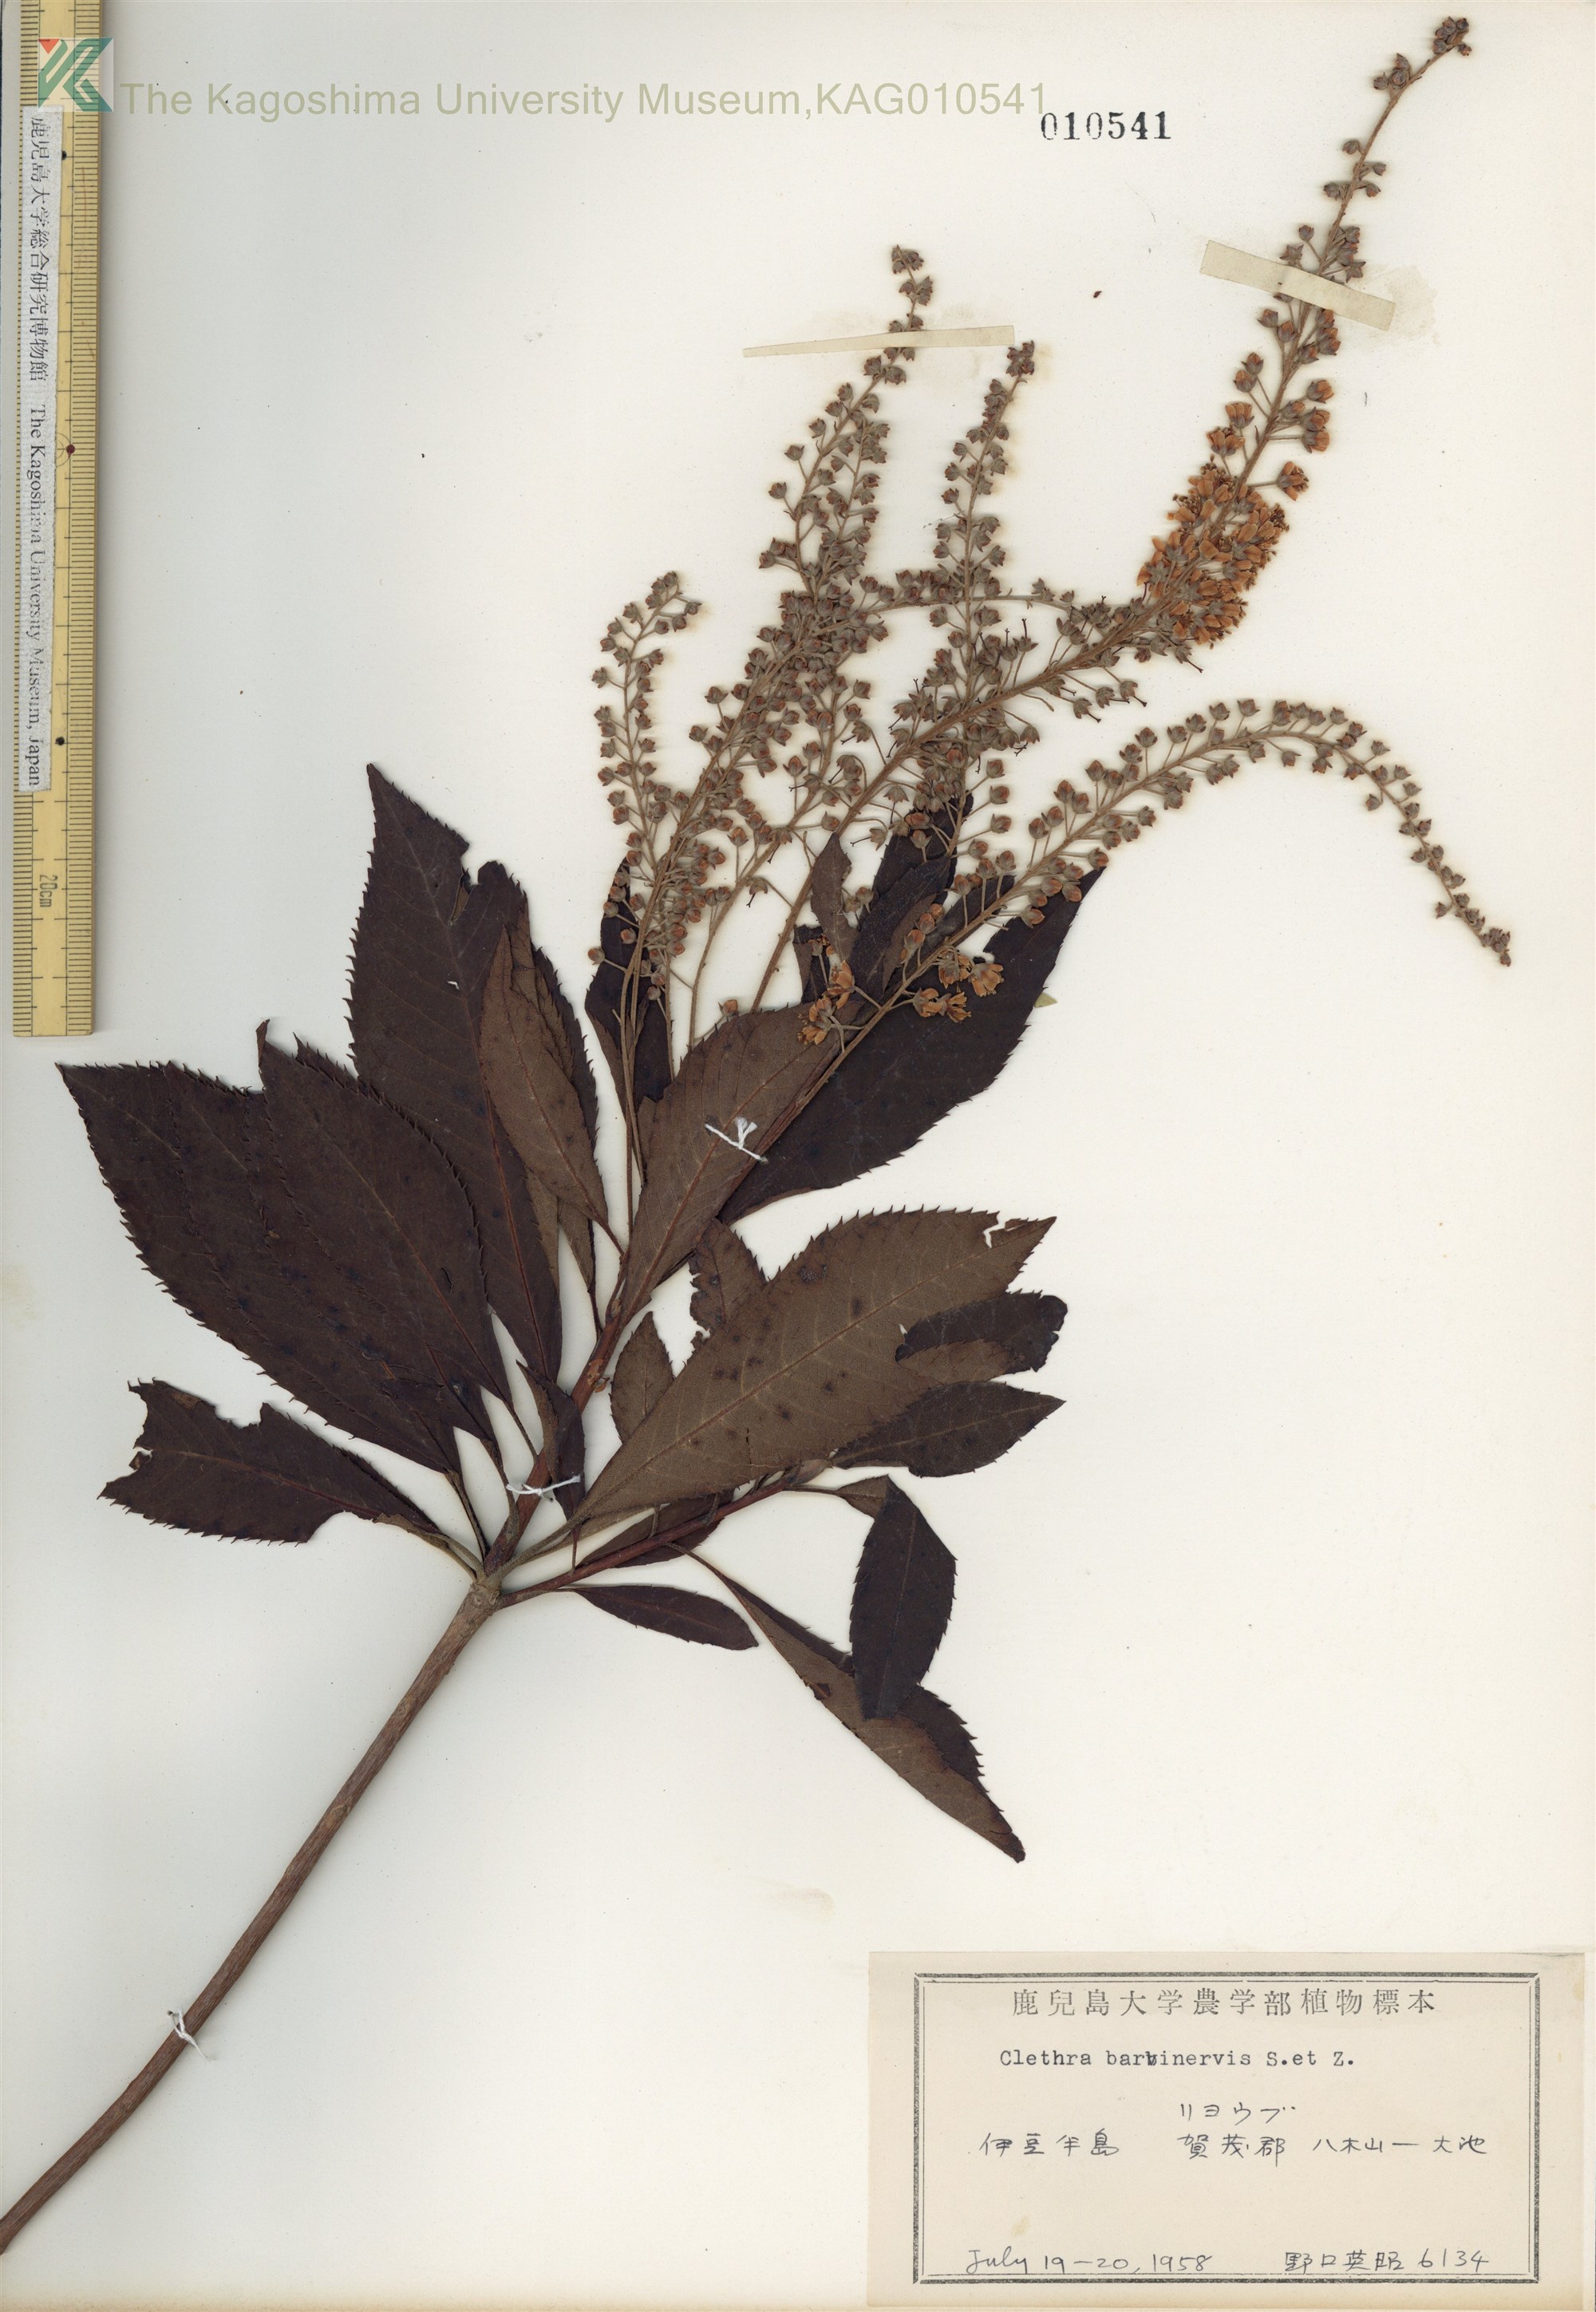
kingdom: Plantae
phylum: Tracheophyta
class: Magnoliopsida
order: Ericales
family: Clethraceae
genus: Clethra
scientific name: Clethra barbinervis
